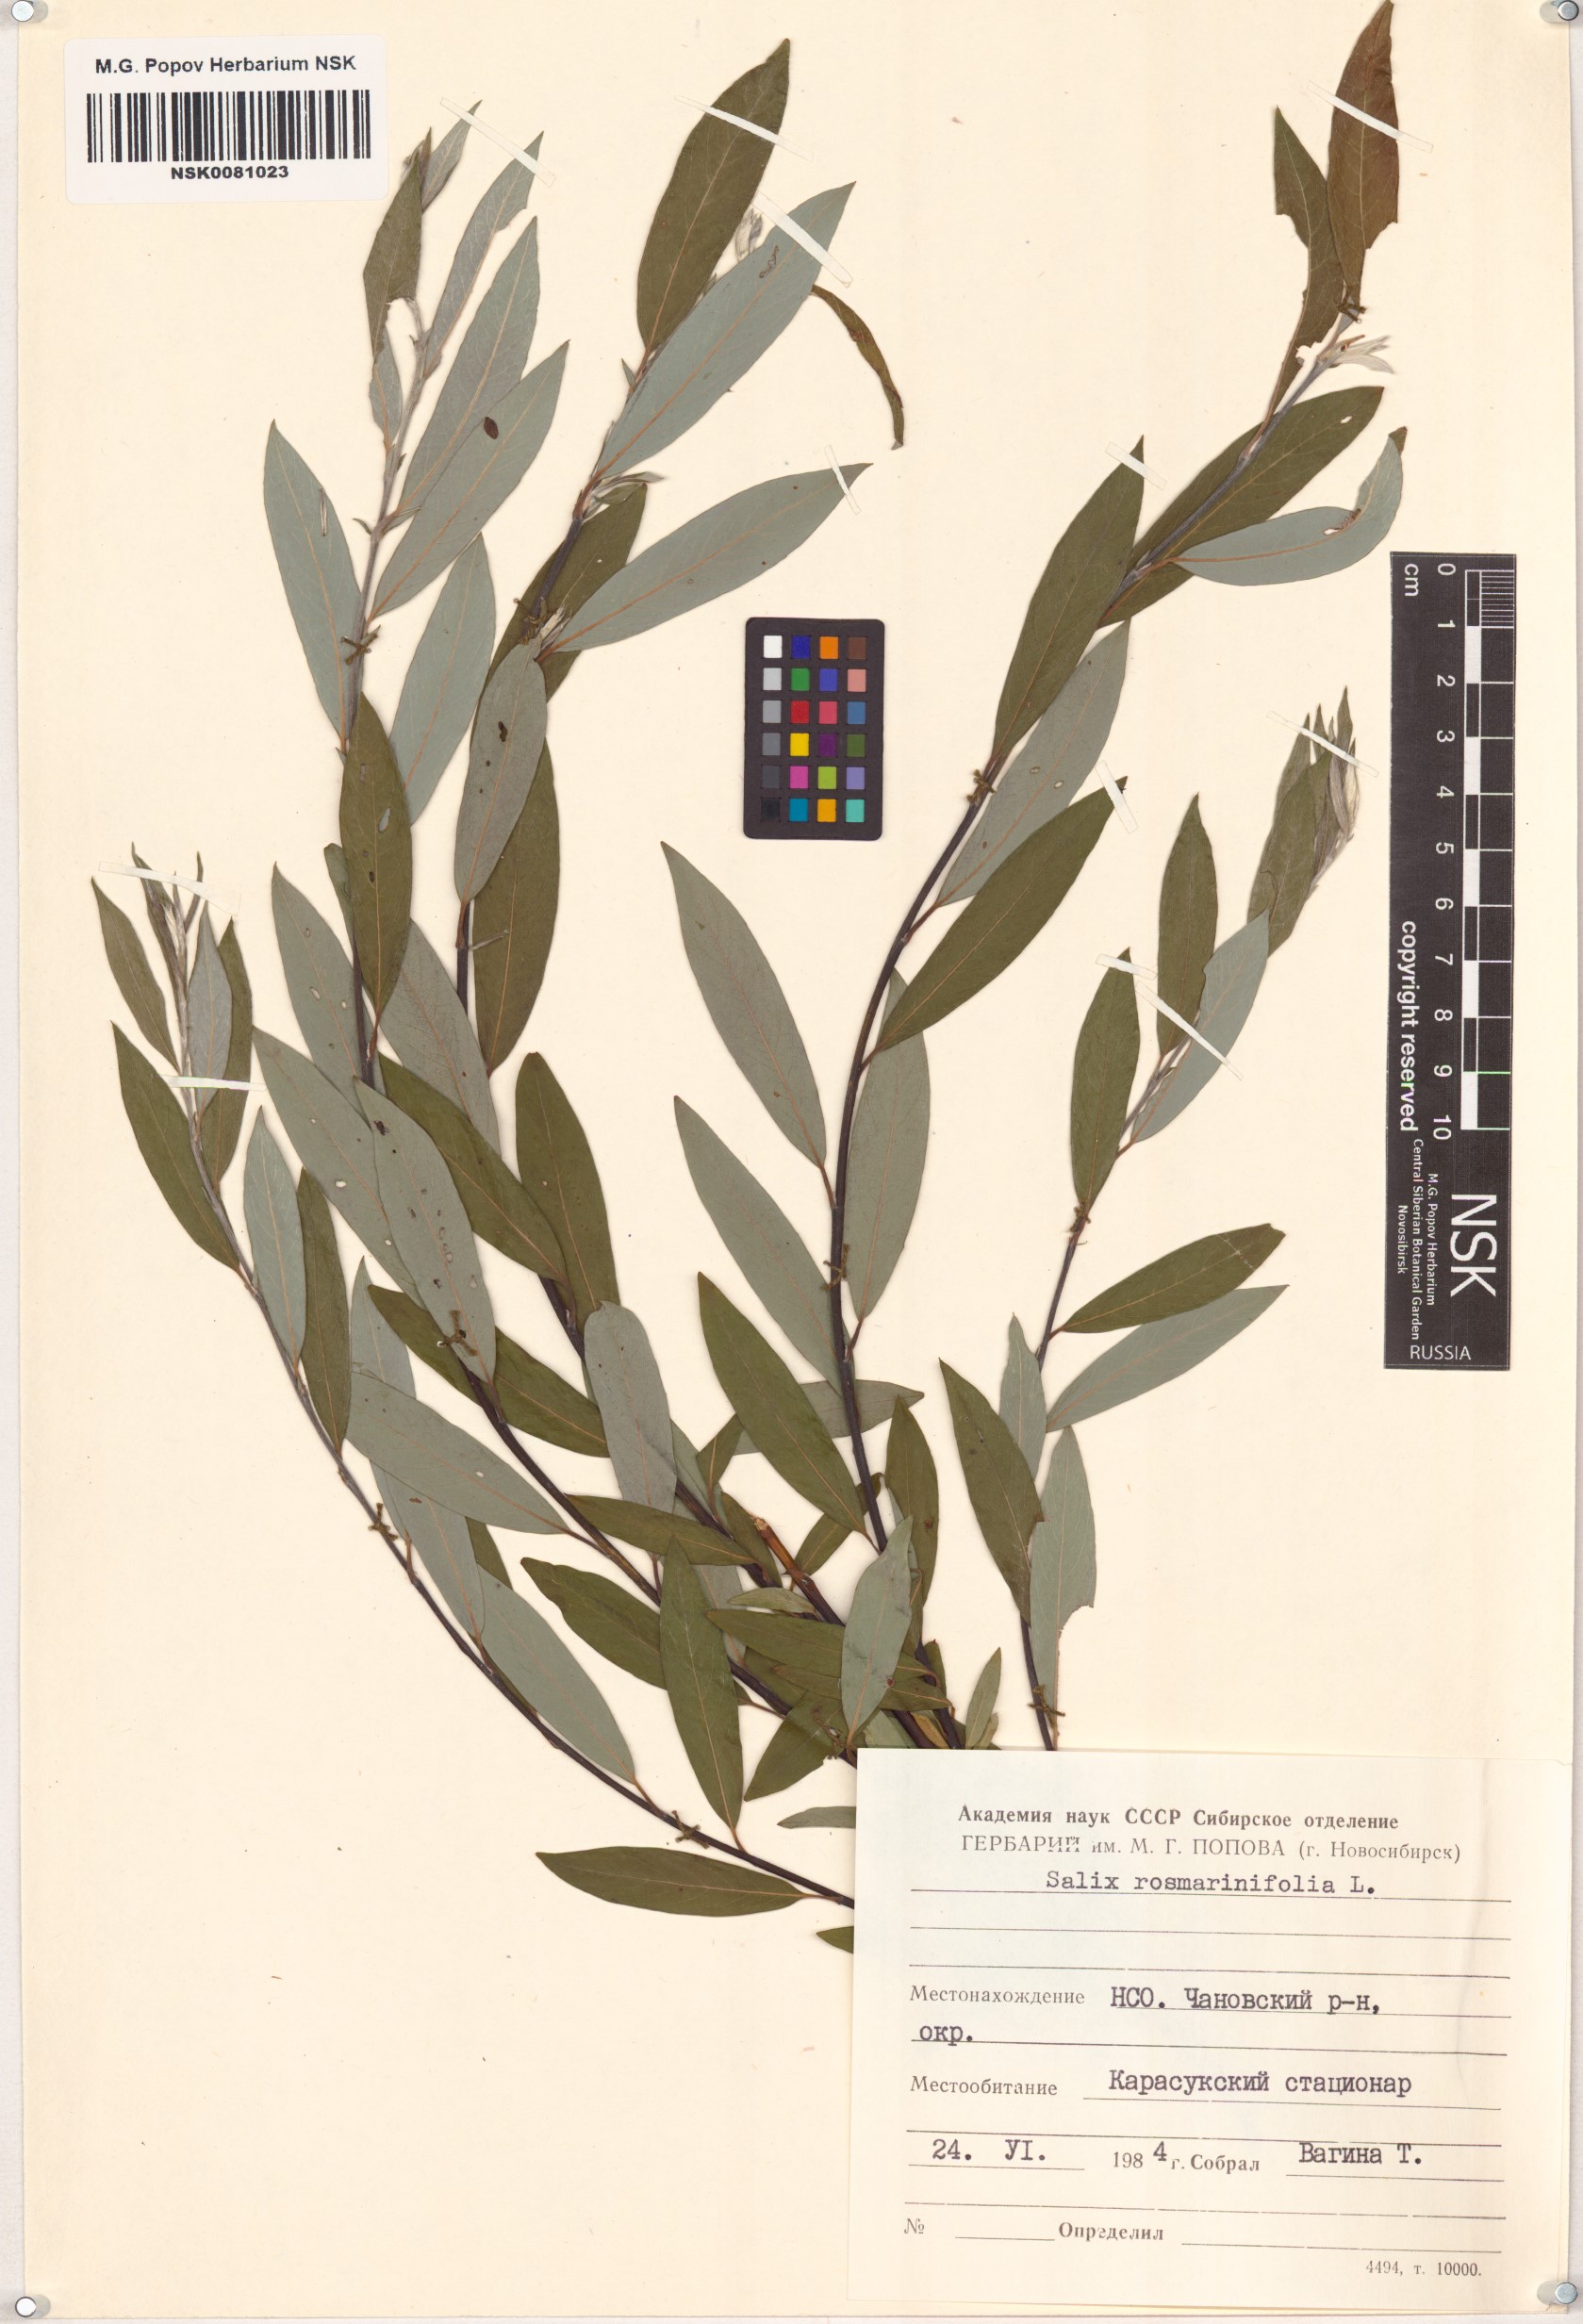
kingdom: Plantae
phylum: Tracheophyta
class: Magnoliopsida
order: Malpighiales
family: Salicaceae
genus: Salix
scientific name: Salix rosmarinifolia
